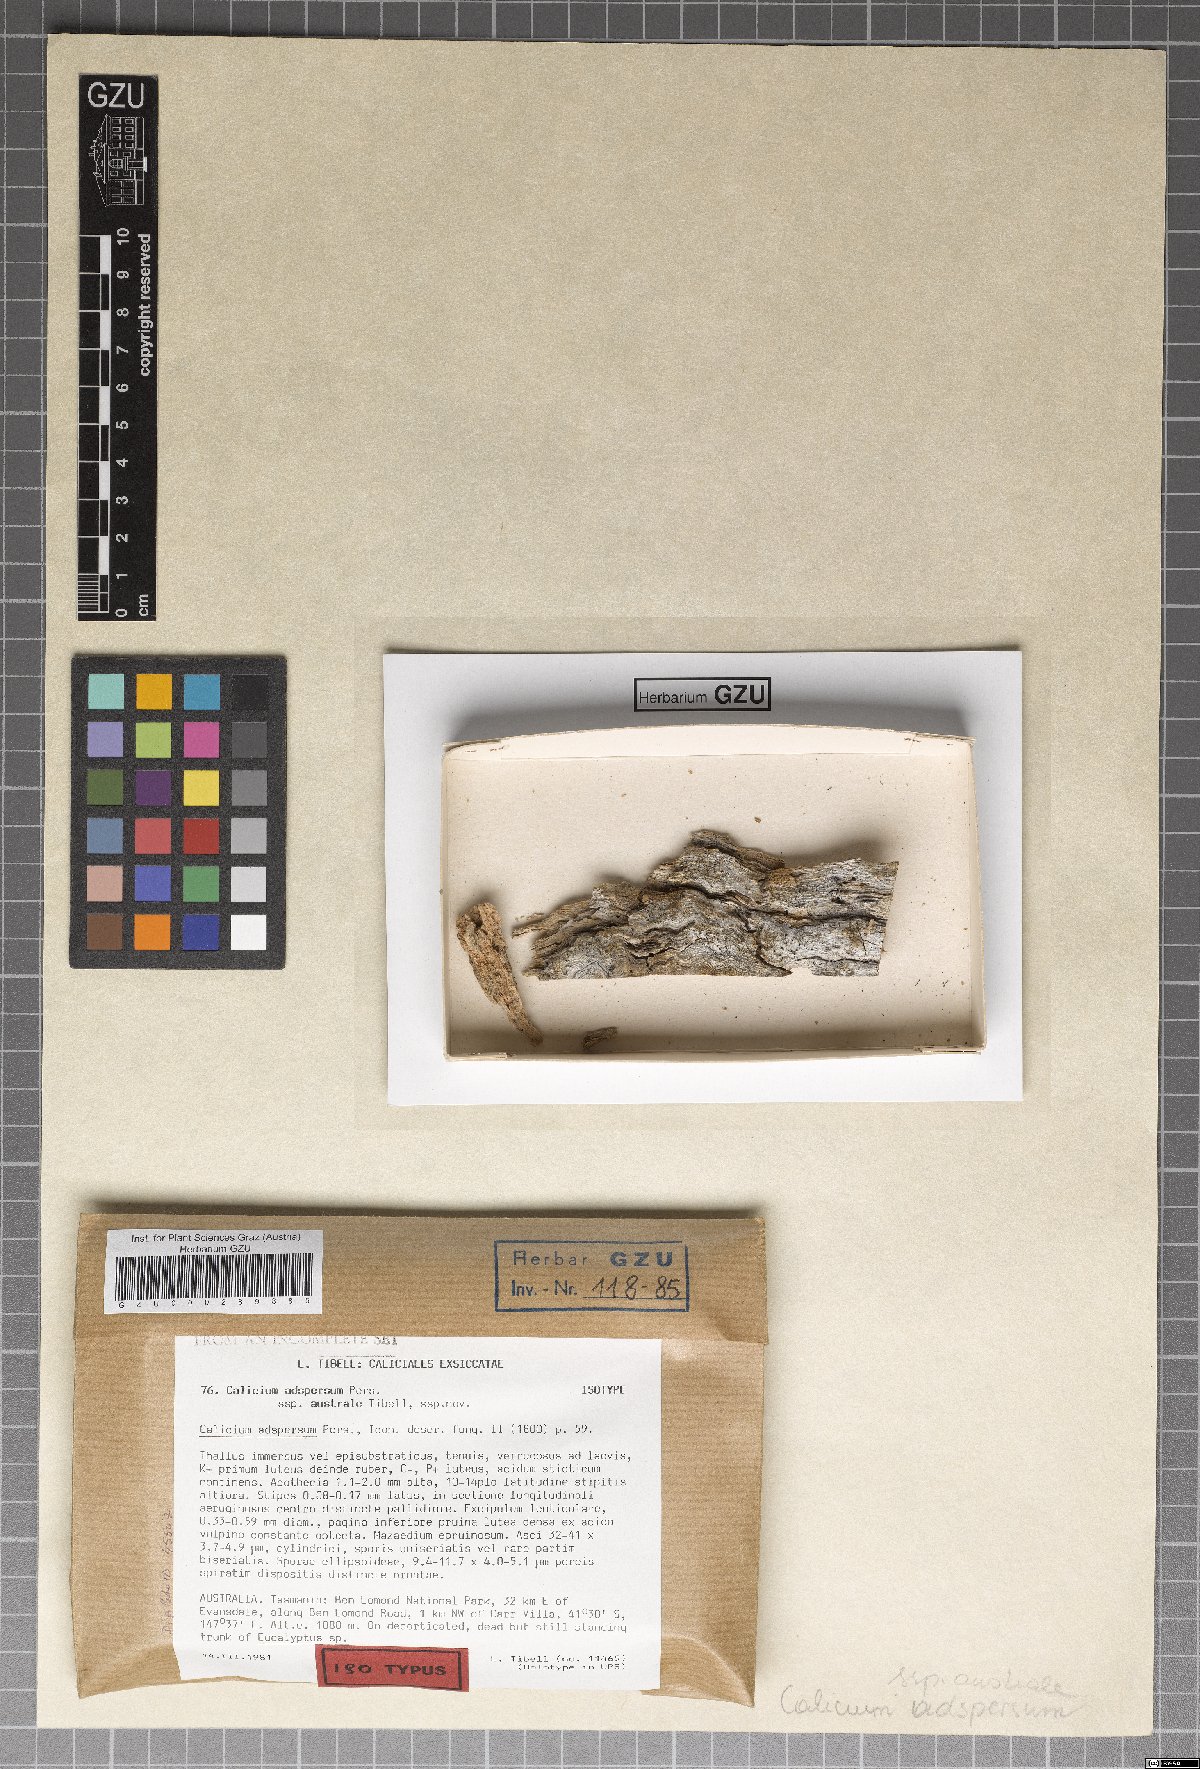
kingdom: Fungi
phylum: Ascomycota
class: Lecanoromycetes
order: Caliciales
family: Caliciaceae
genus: Calicium
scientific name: Calicium adspersum
